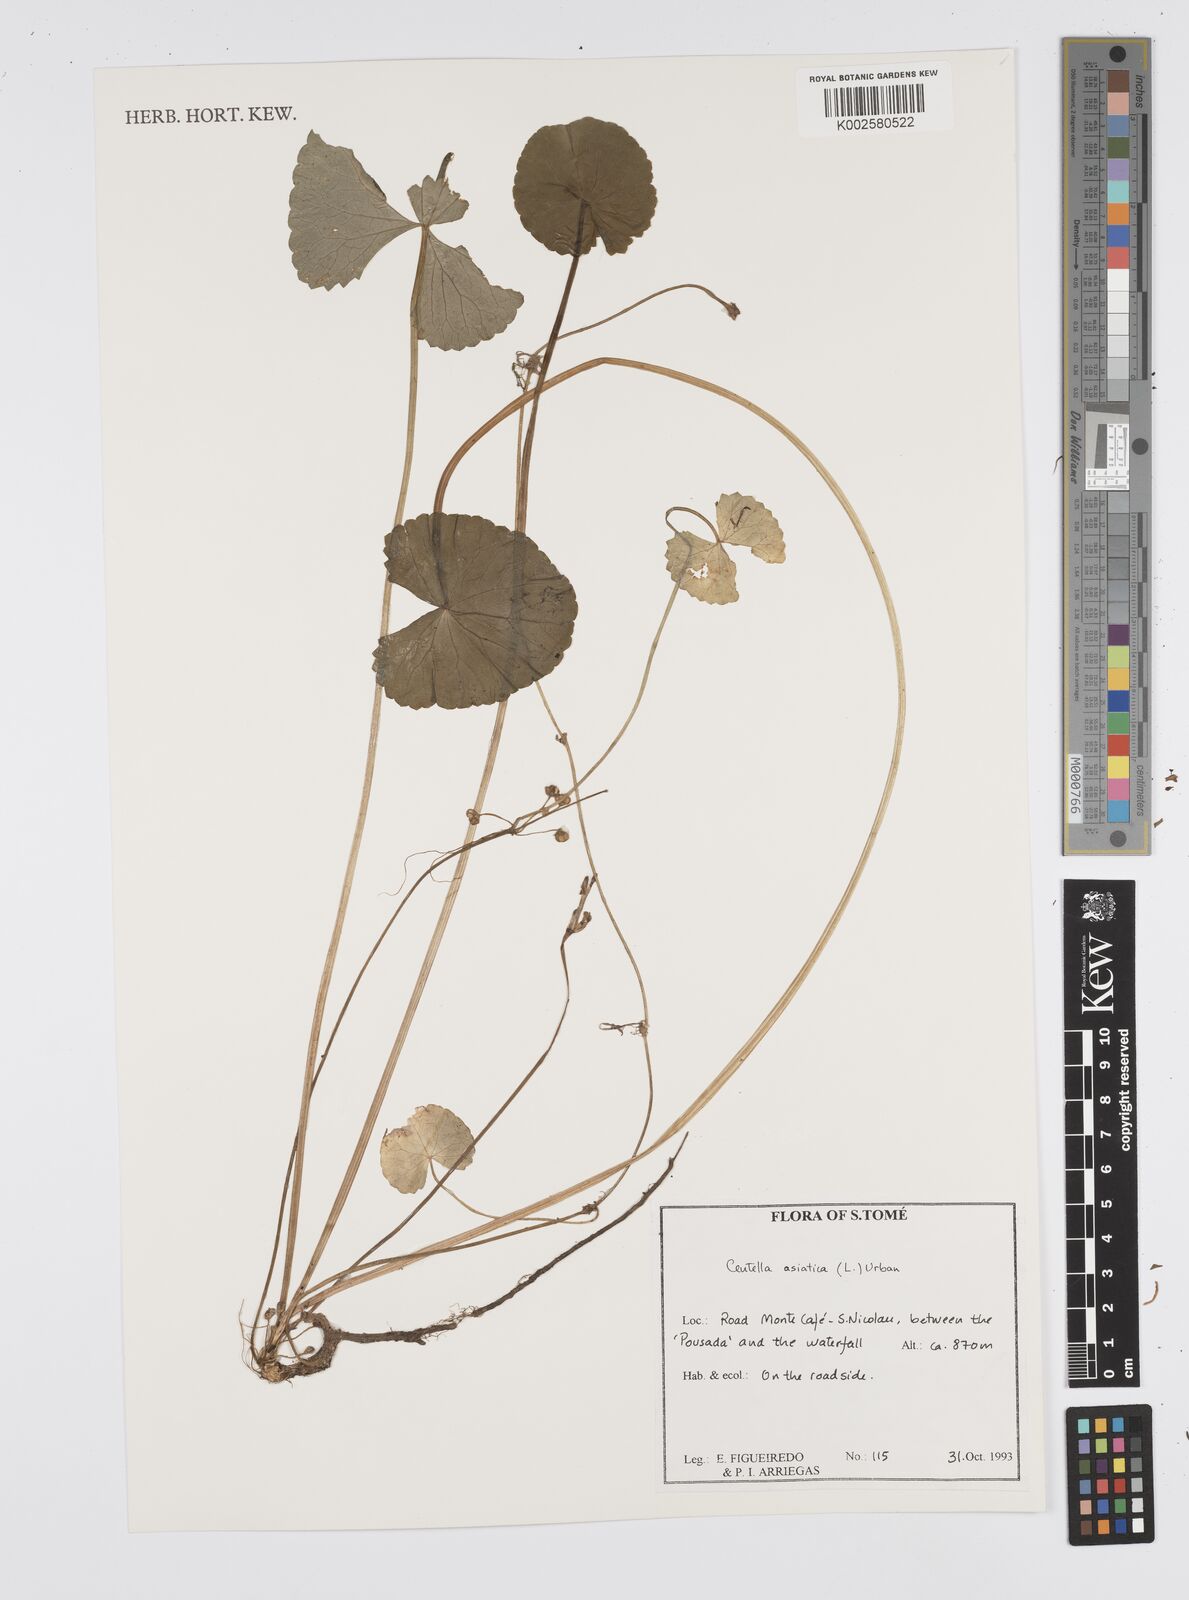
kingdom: Plantae
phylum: Tracheophyta
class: Magnoliopsida
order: Apiales
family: Apiaceae
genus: Centella
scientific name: Centella asiatica
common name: Spadeleaf
